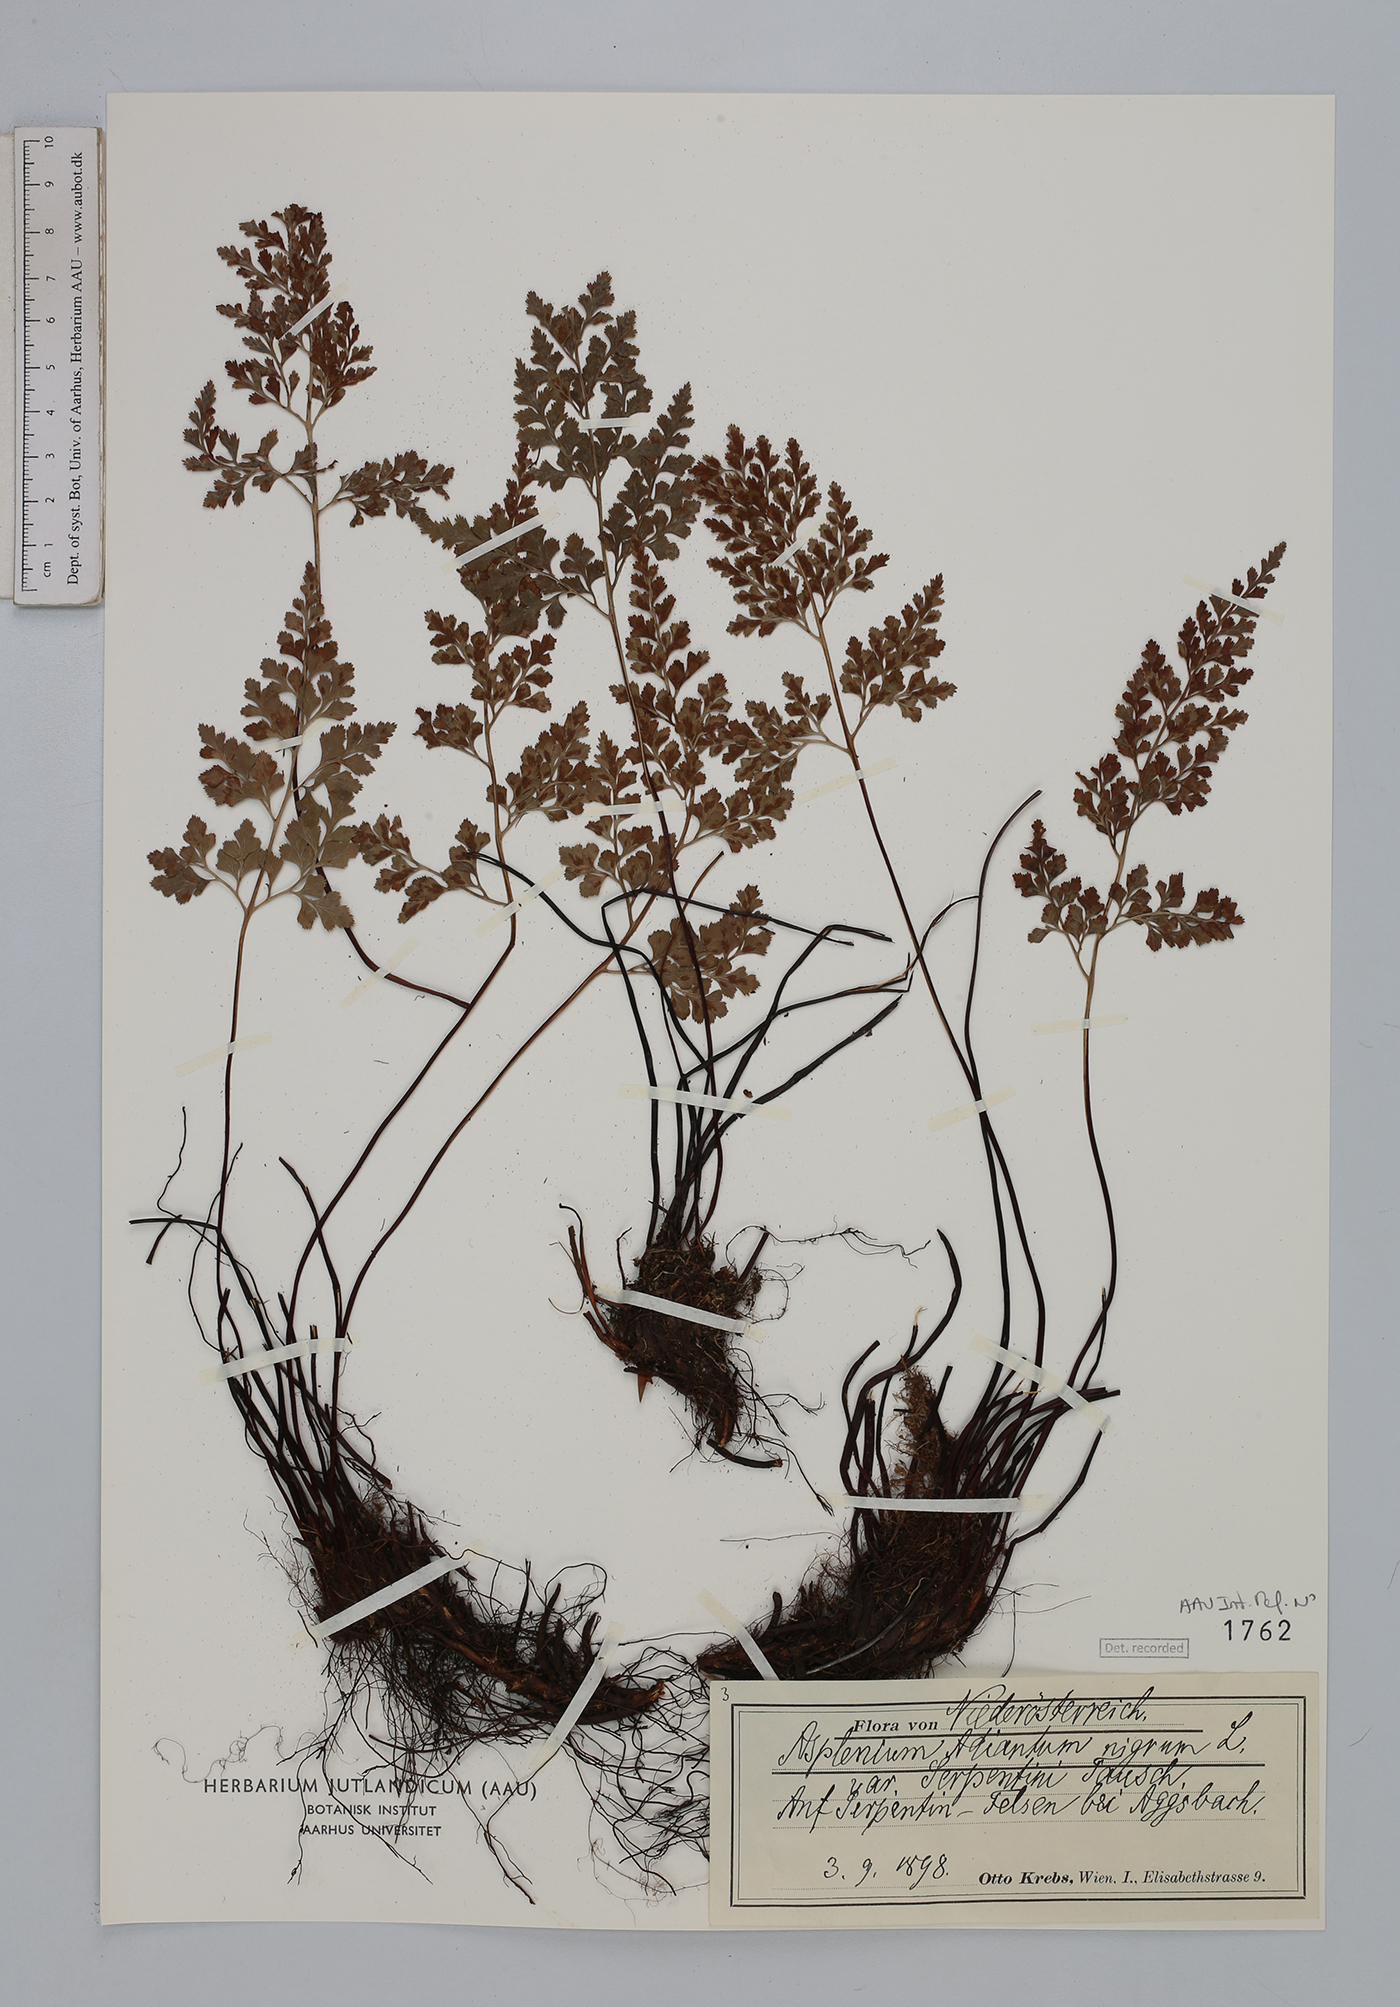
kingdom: Plantae
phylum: Tracheophyta
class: Polypodiopsida
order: Polypodiales
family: Aspleniaceae
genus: Asplenium
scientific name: Asplenium cuneifolium
